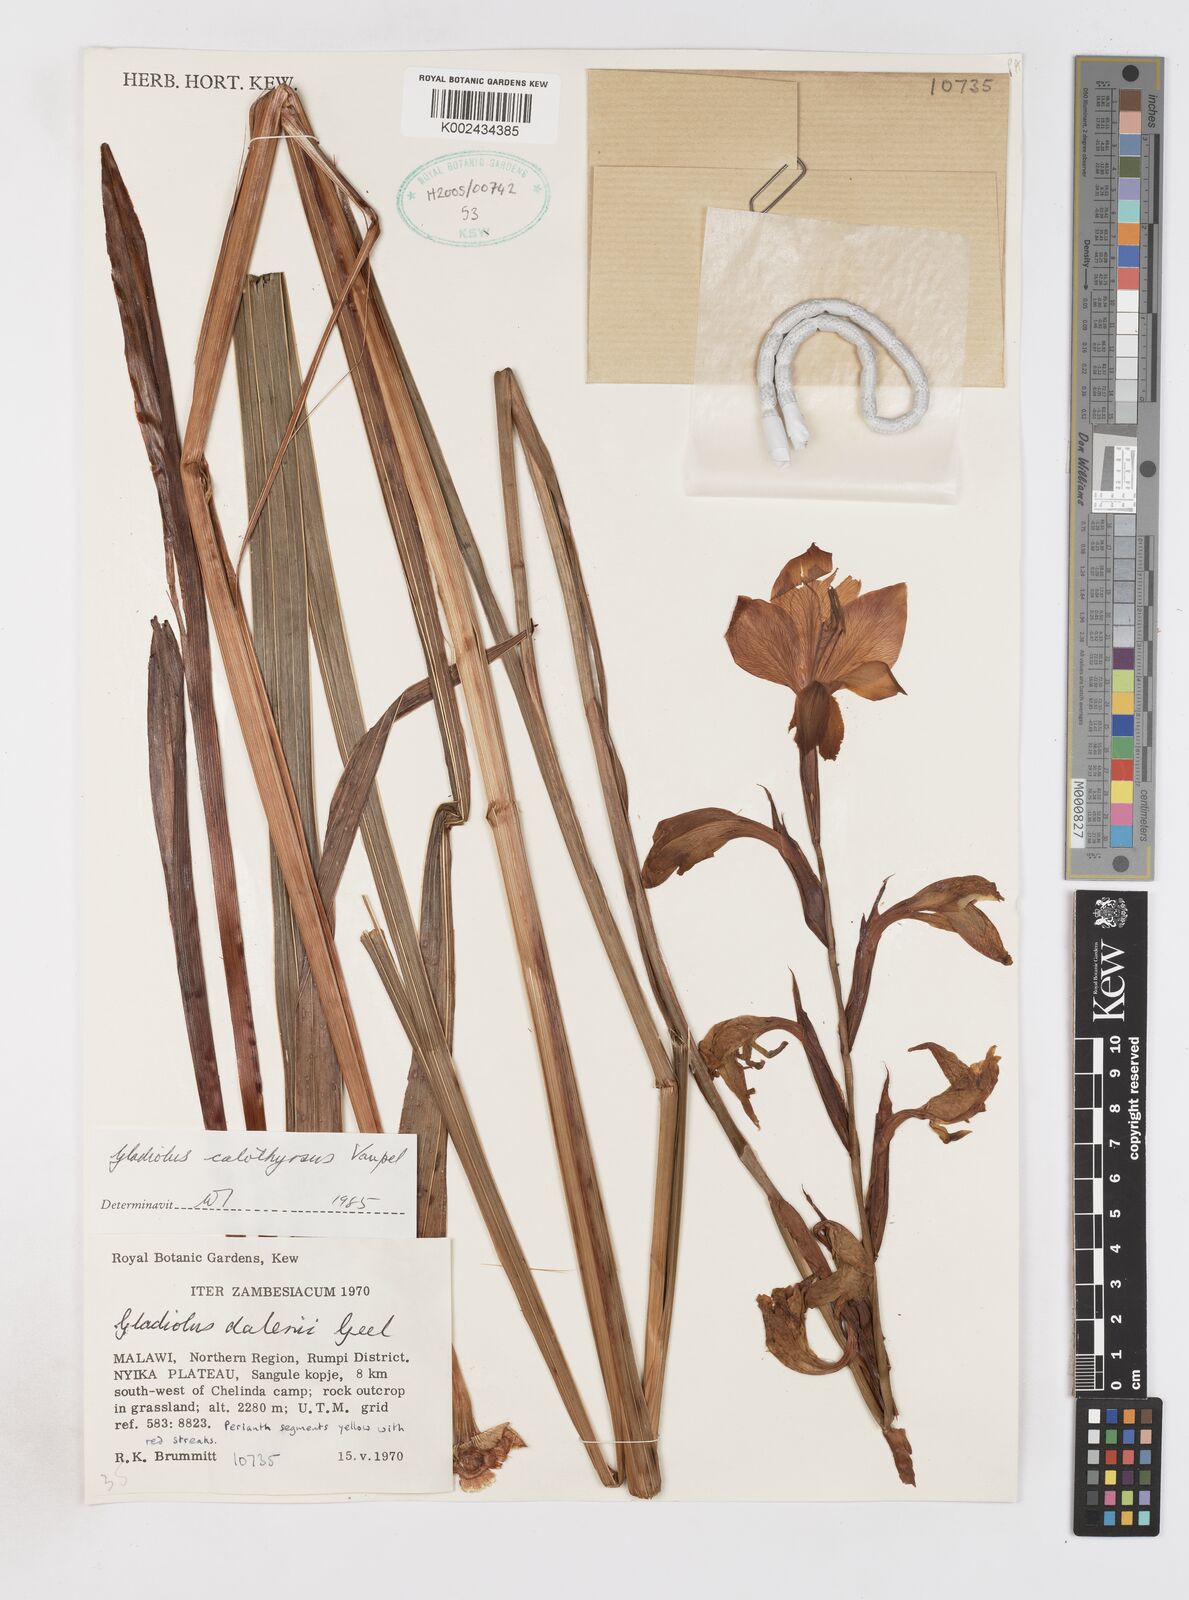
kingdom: Plantae
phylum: Tracheophyta
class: Liliopsida
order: Asparagales
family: Iridaceae
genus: Gladiolus
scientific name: Gladiolus dalenii
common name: Cornflag
